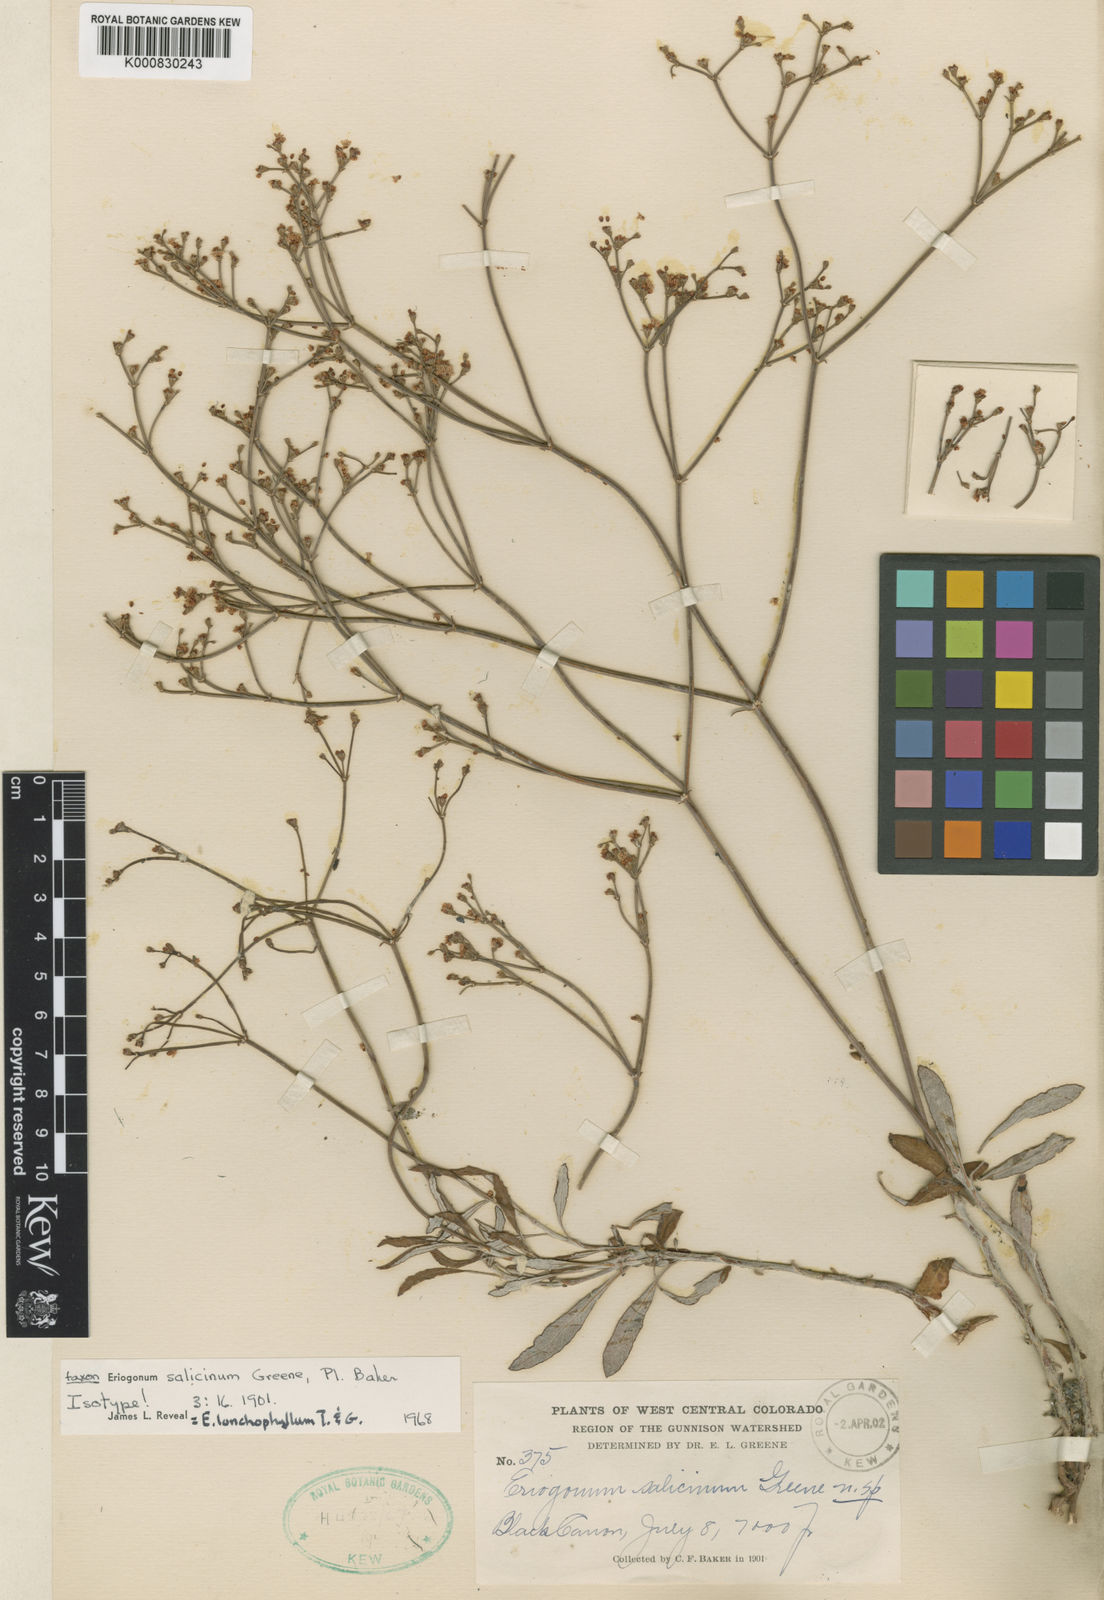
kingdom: Plantae
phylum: Tracheophyta
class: Magnoliopsida
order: Caryophyllales
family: Polygonaceae
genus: Eriogonum
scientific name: Eriogonum lonchophyllum
